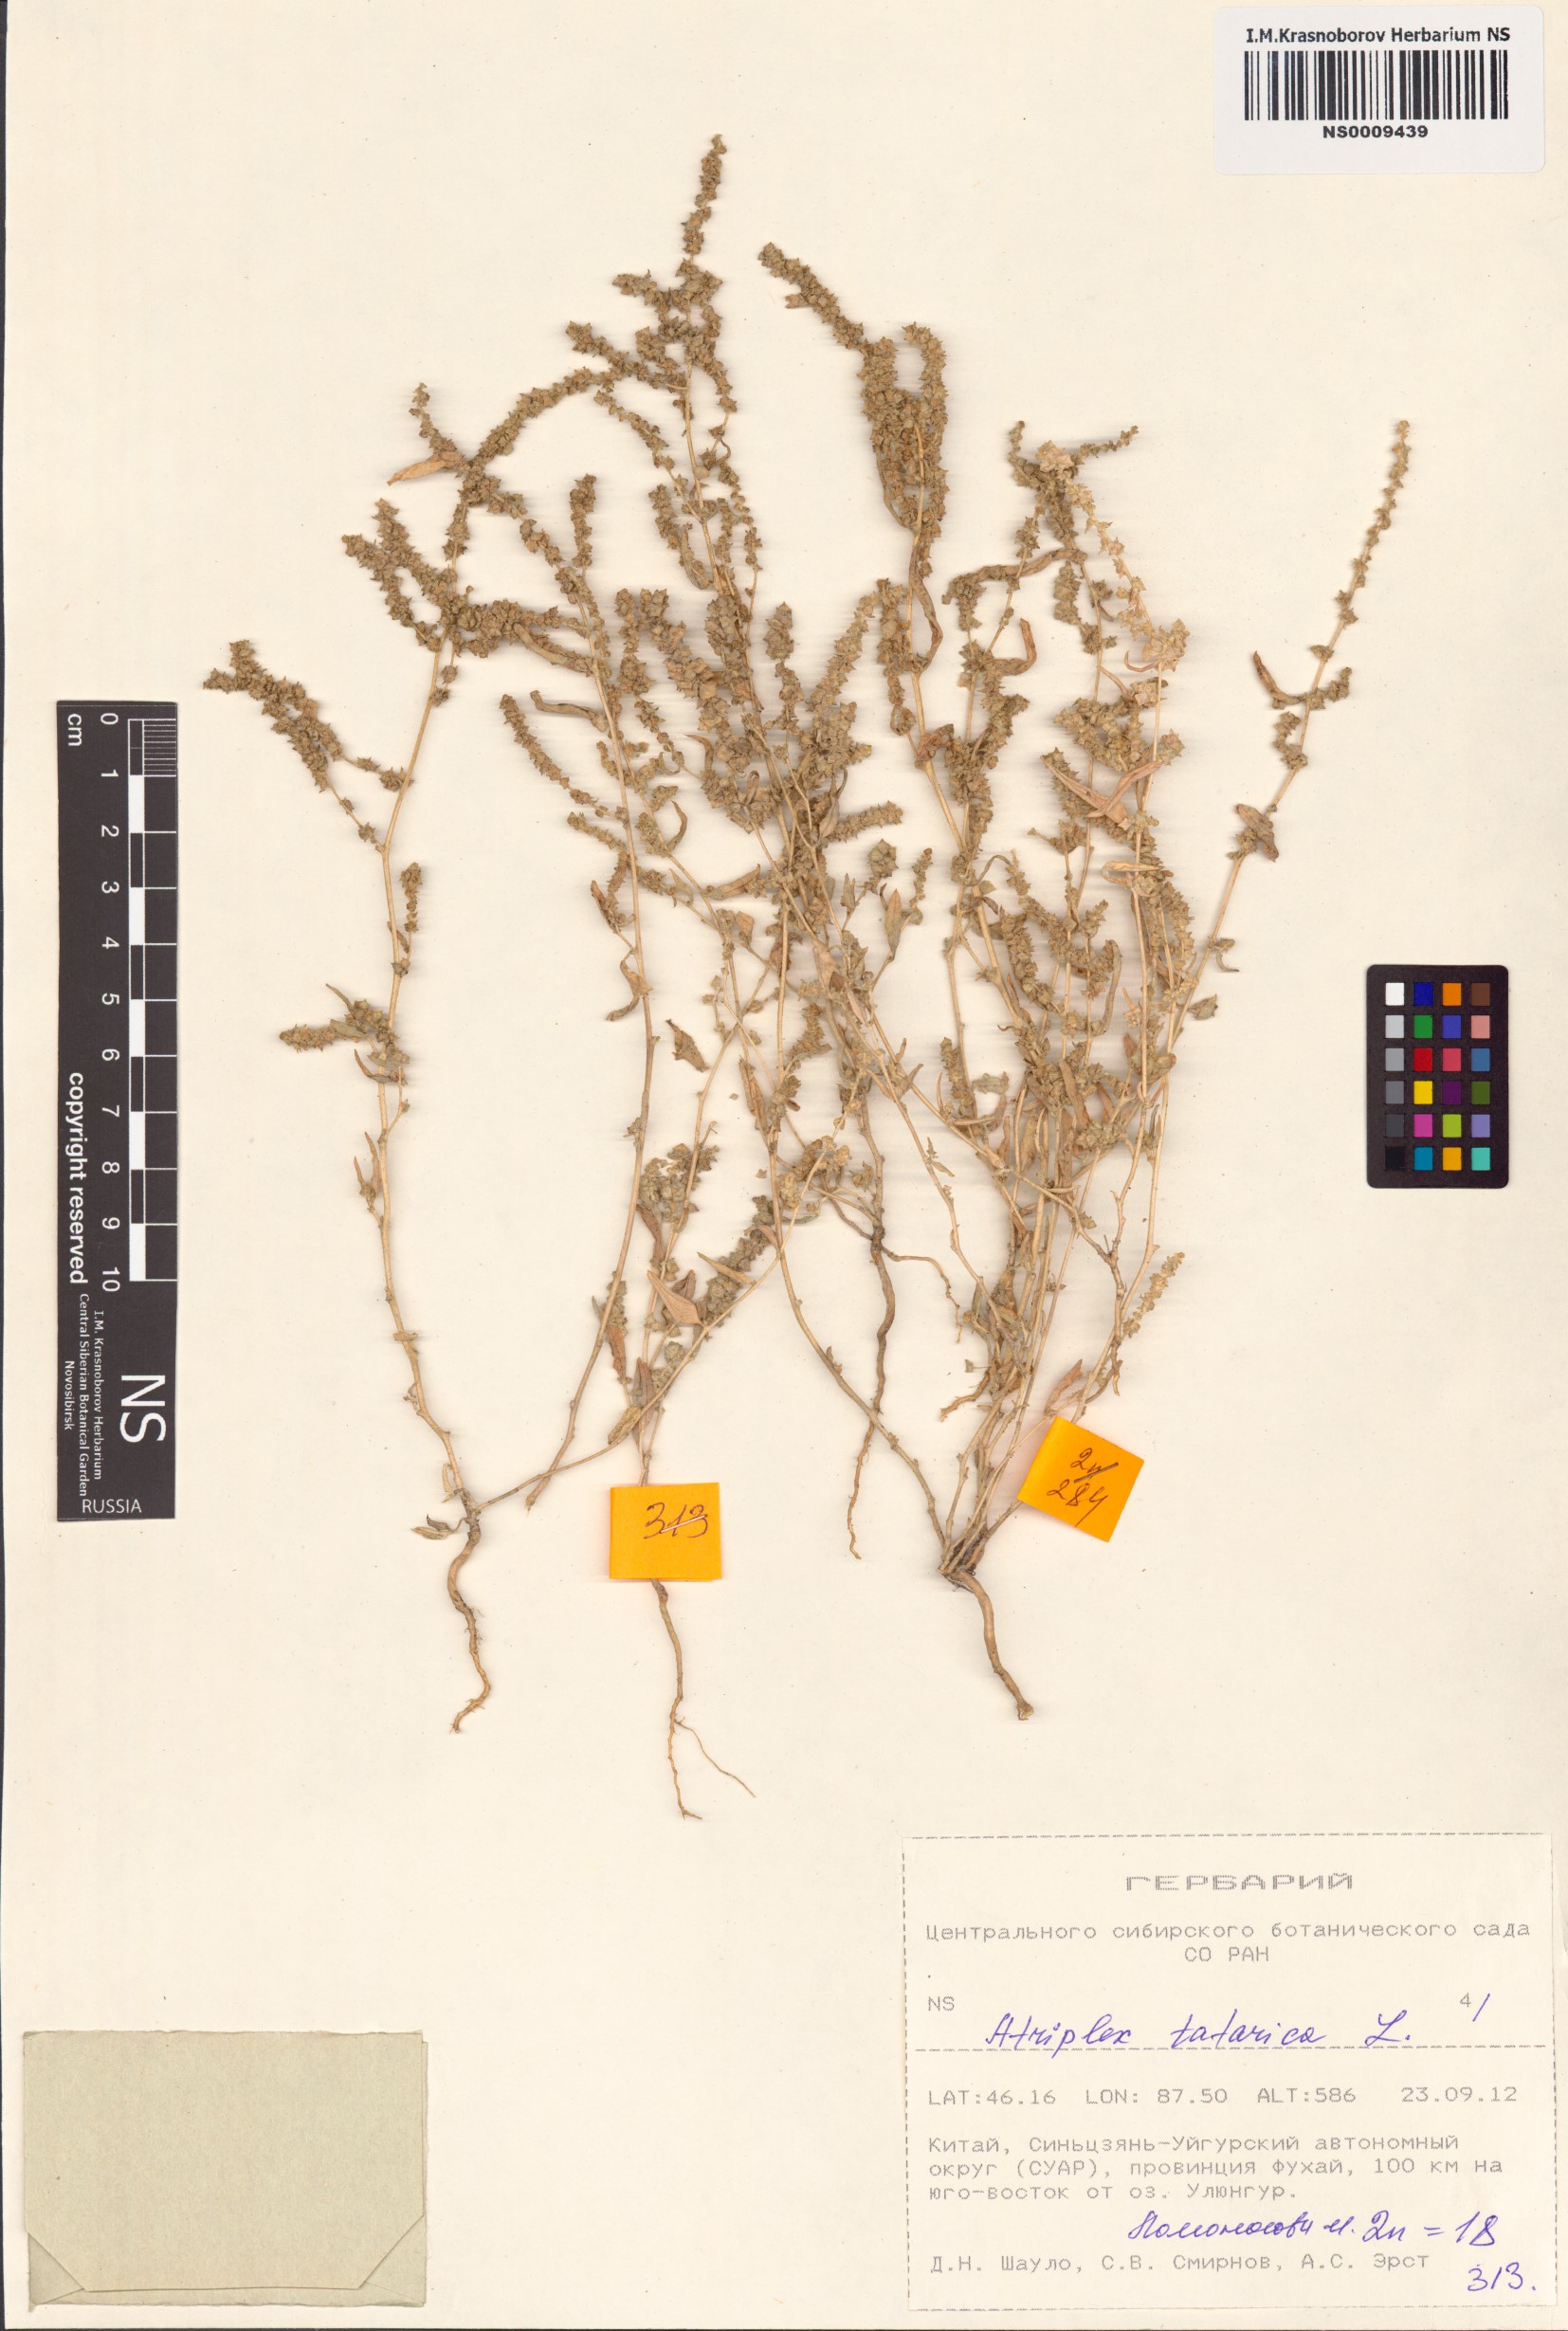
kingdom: Plantae
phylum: Tracheophyta
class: Magnoliopsida
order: Caryophyllales
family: Amaranthaceae
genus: Atriplex
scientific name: Atriplex tatarica
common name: Tatarian orache
